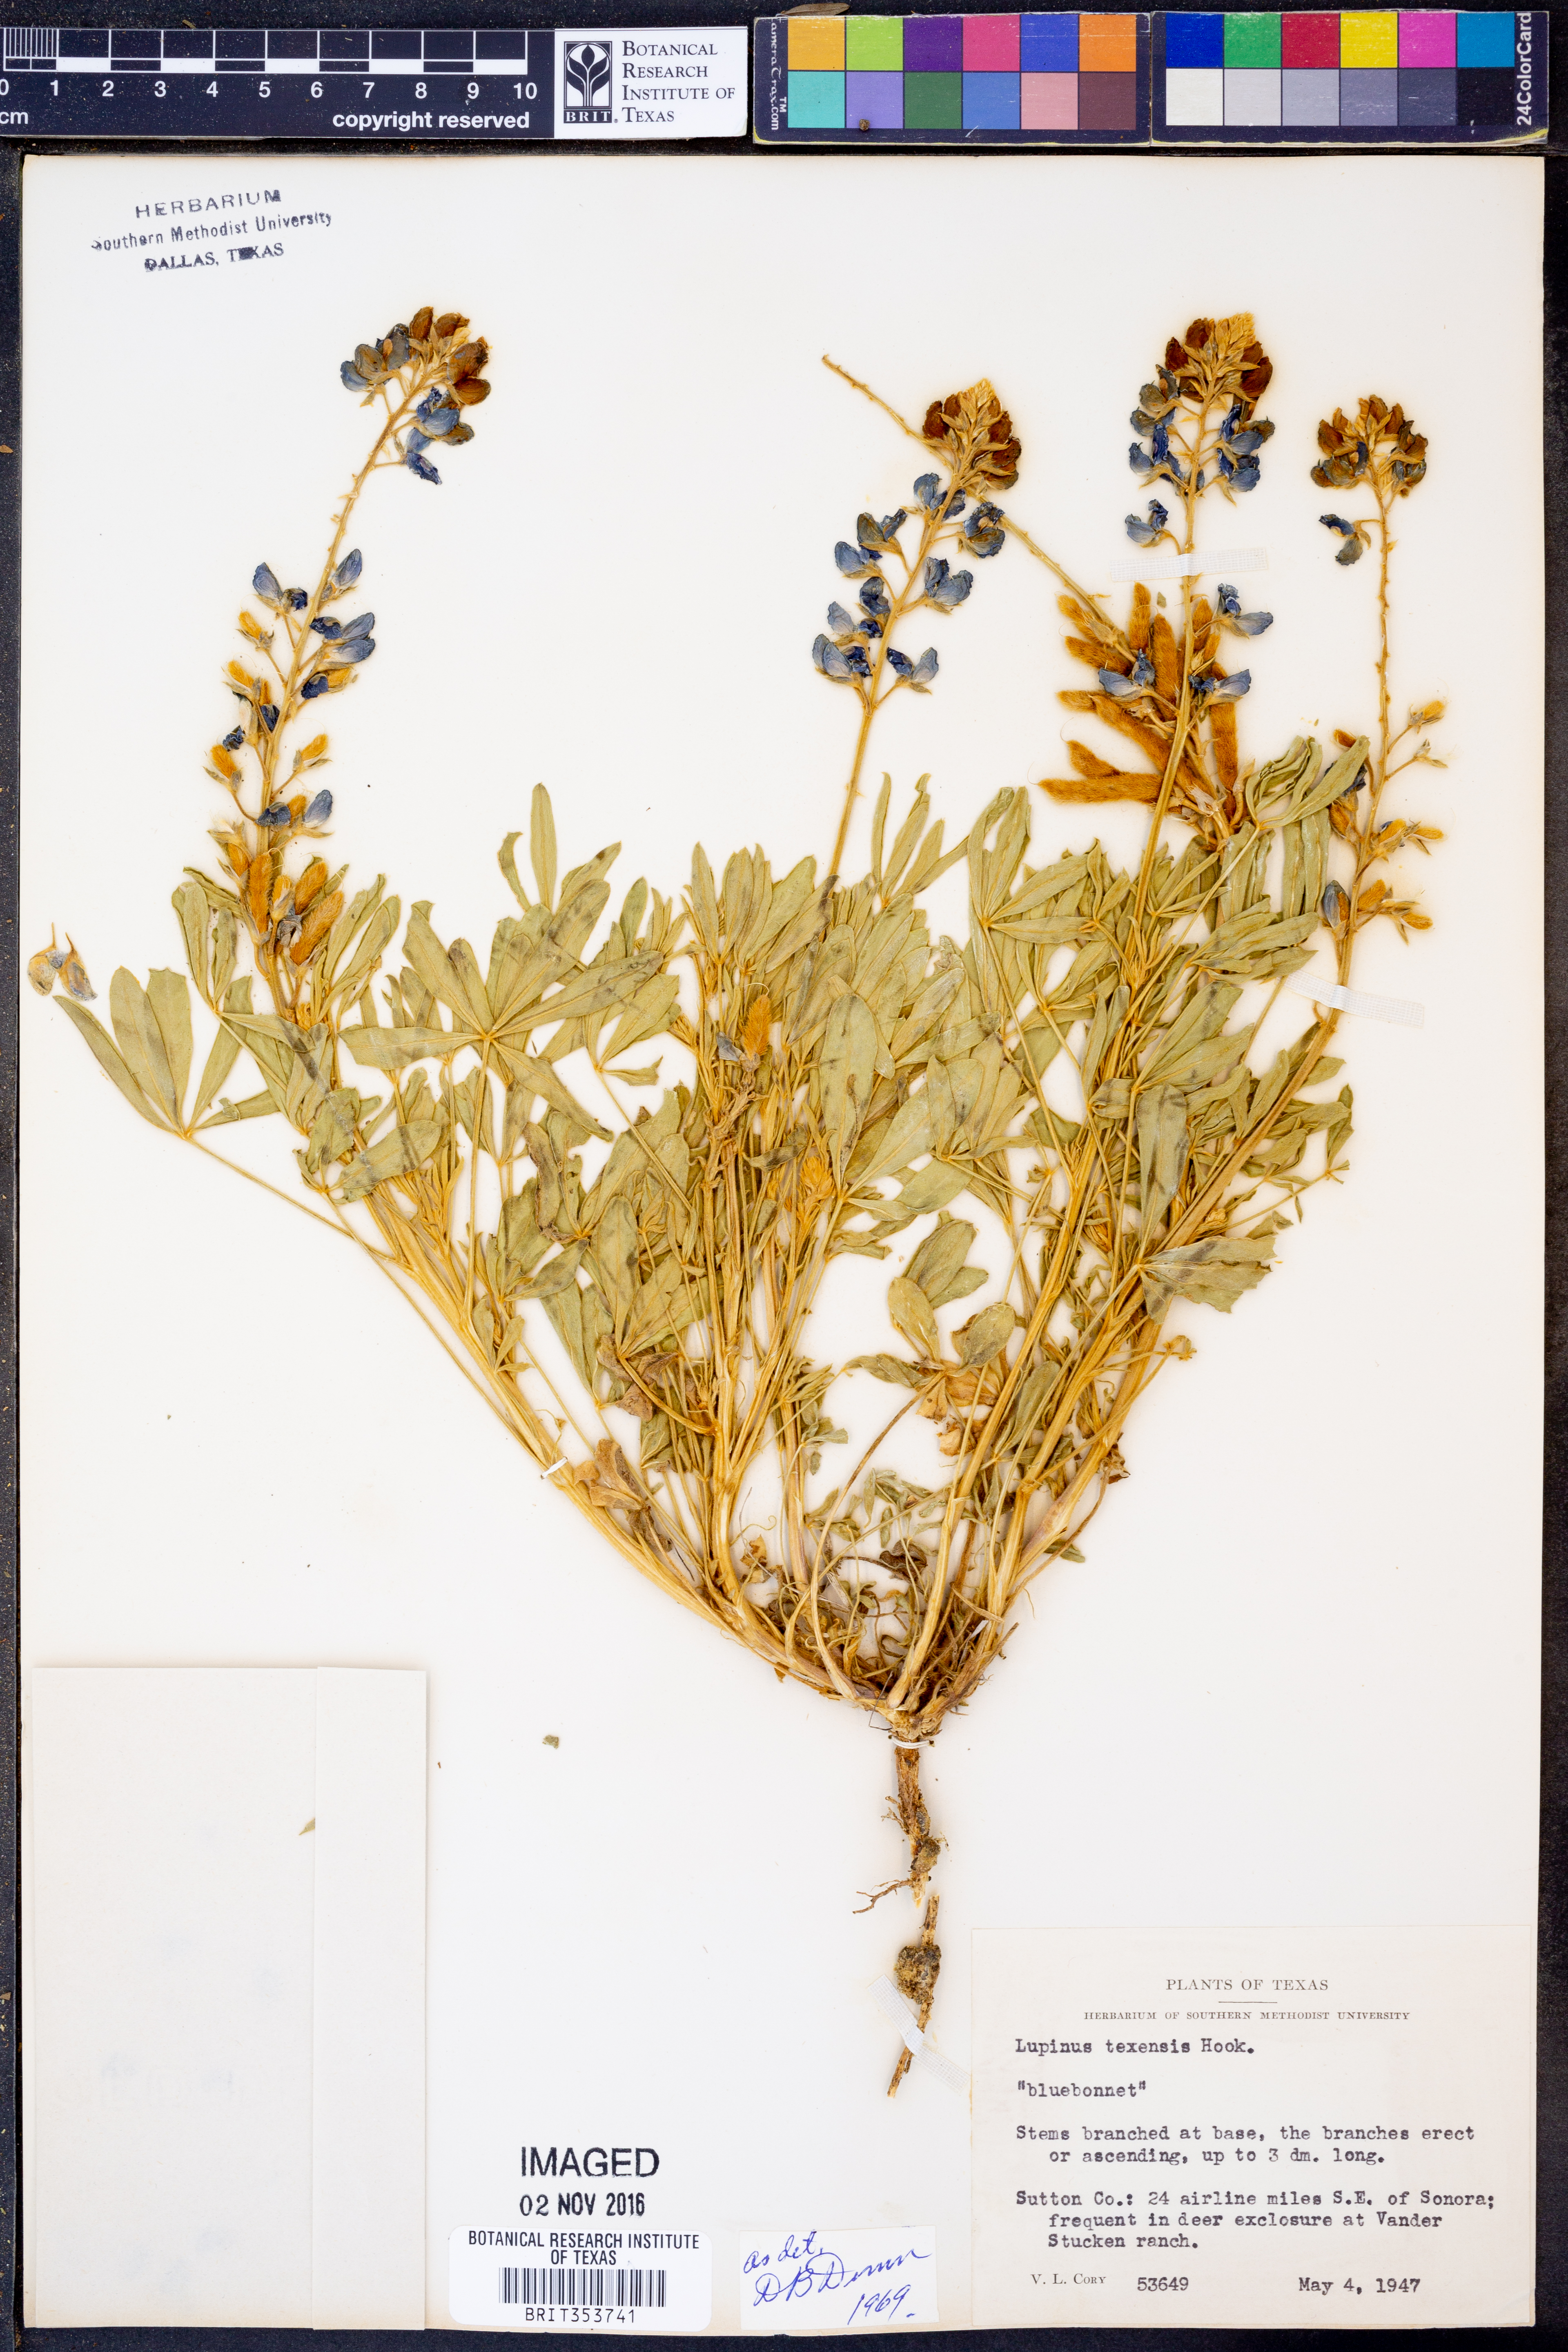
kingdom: Plantae
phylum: Tracheophyta
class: Magnoliopsida
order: Fabales
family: Fabaceae
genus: Lupinus
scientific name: Lupinus texensis
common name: Texas bluebonnet
